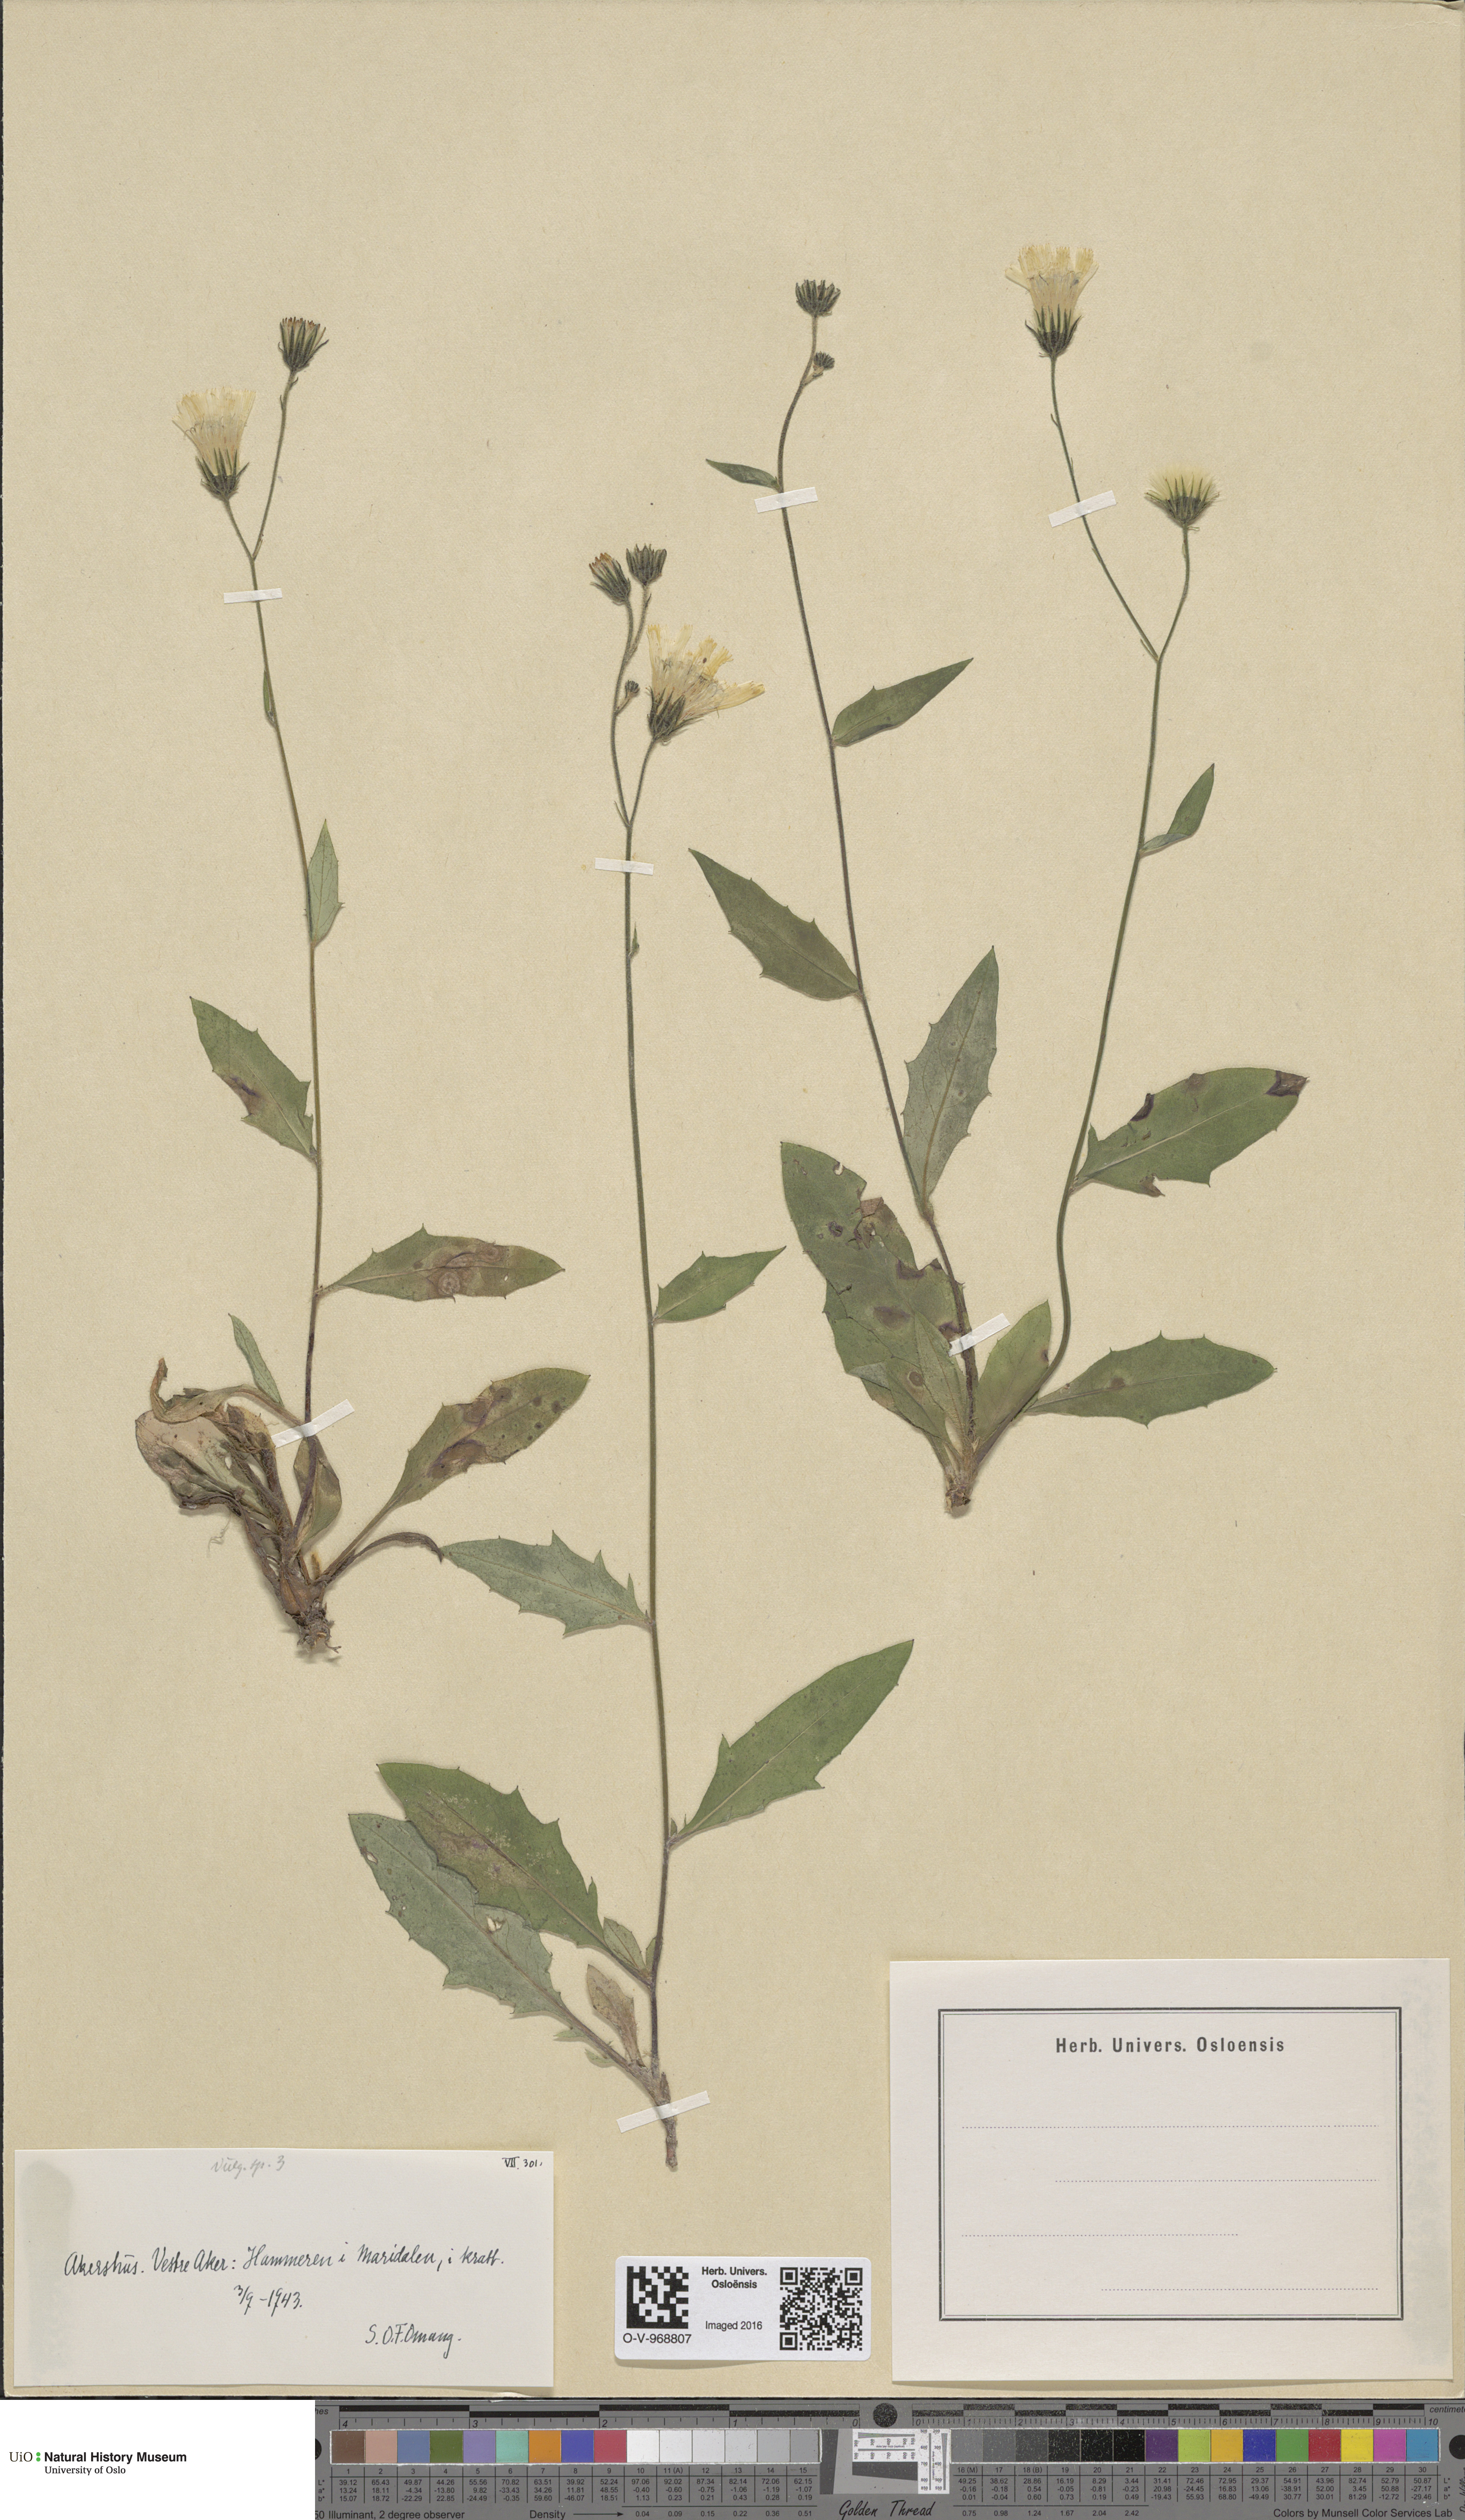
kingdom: Plantae
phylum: Tracheophyta
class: Magnoliopsida
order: Asterales
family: Asteraceae
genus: Hieracium
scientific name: Hieracium
